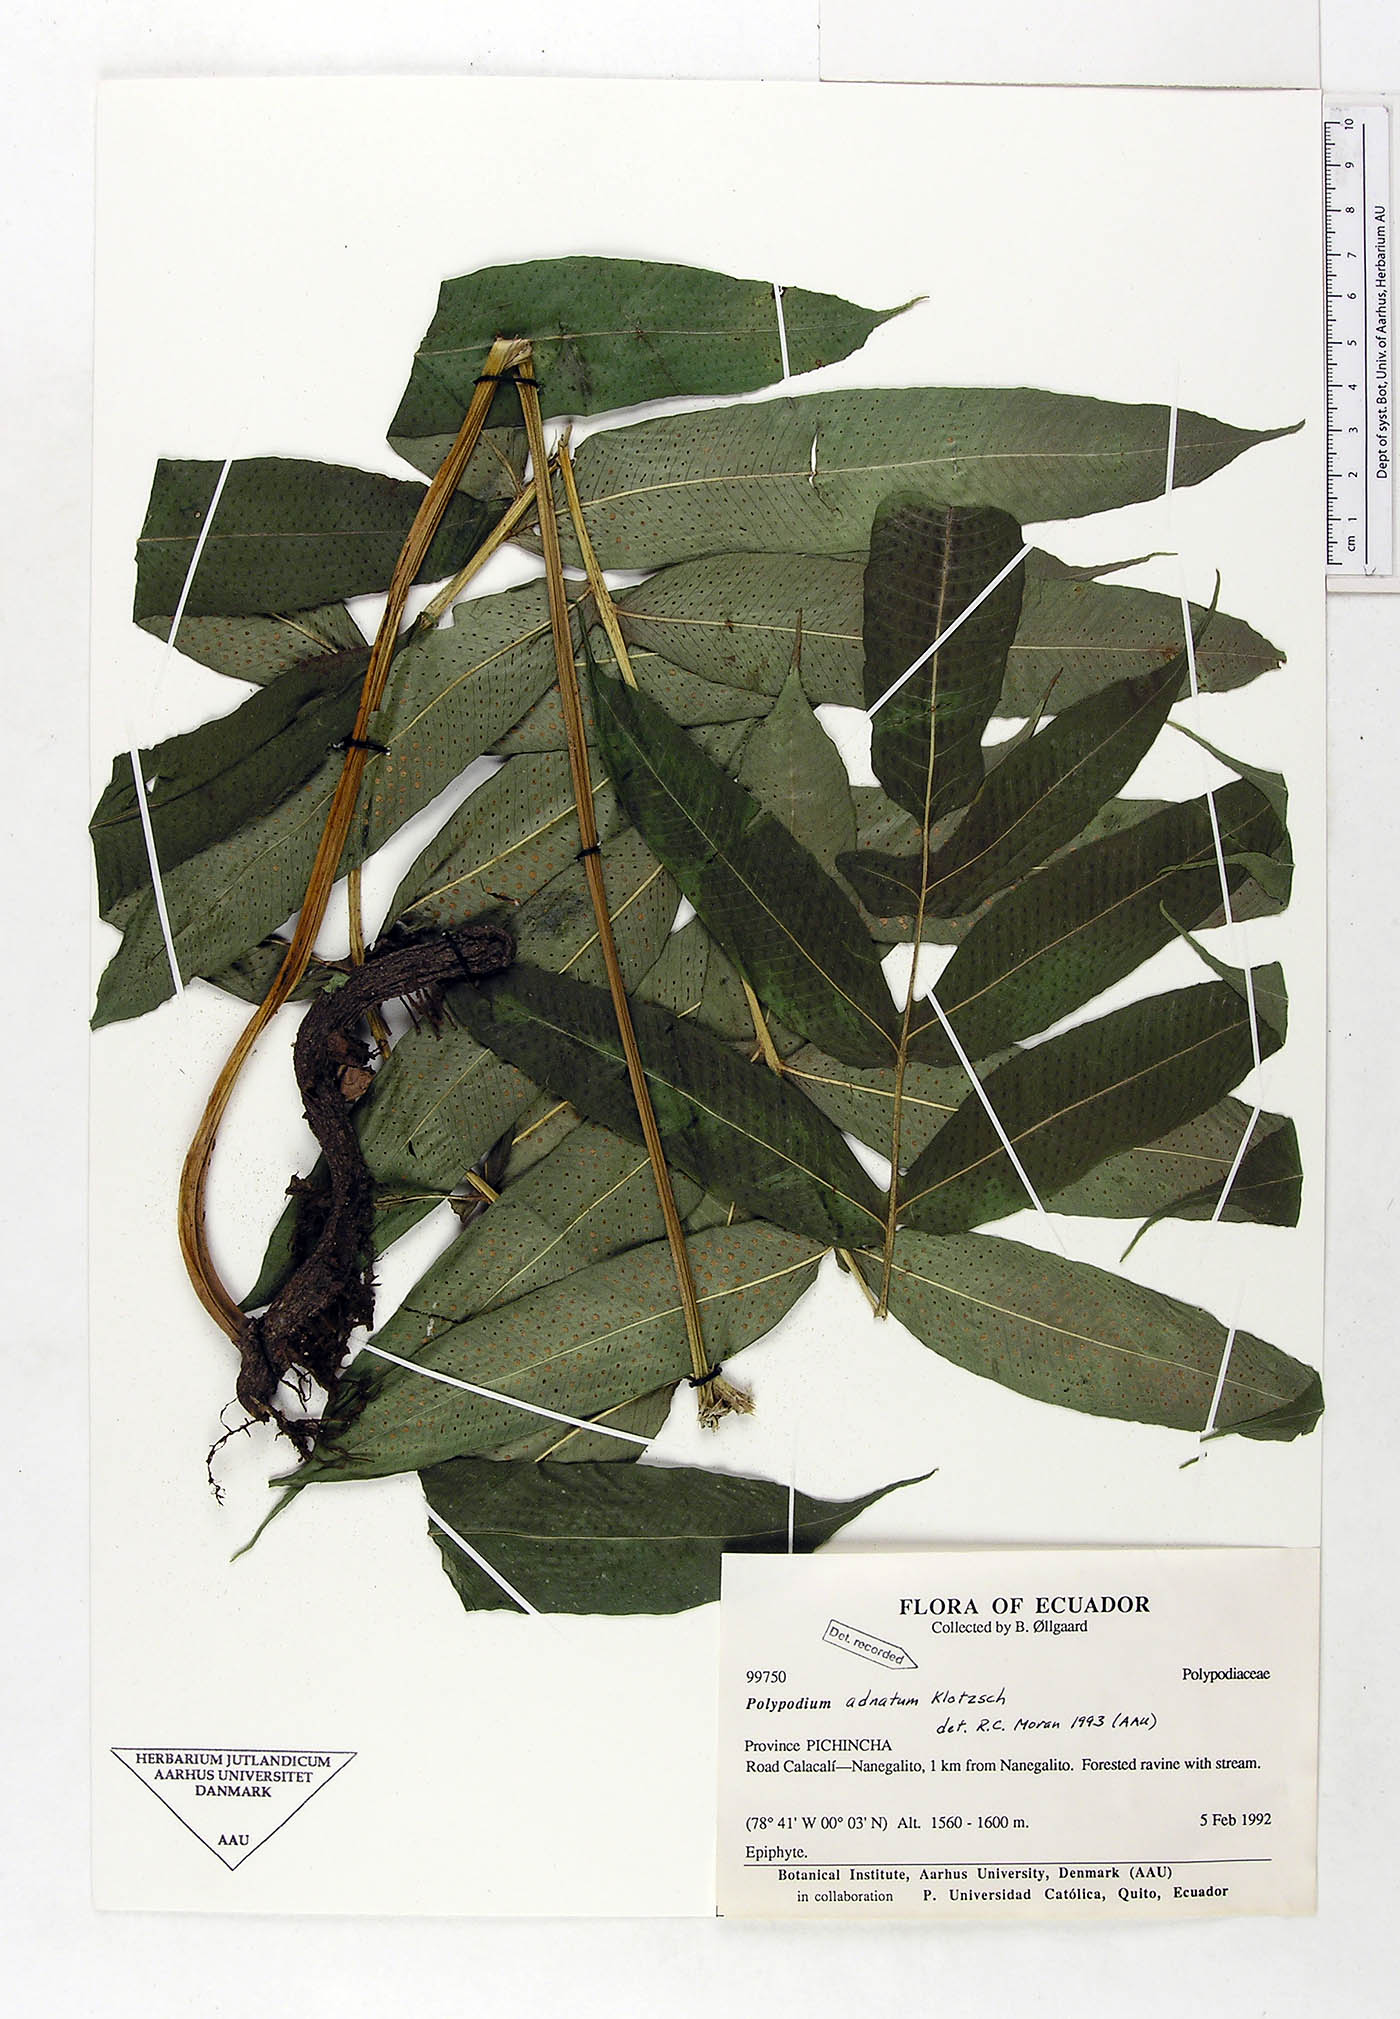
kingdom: Plantae
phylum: Tracheophyta
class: Polypodiopsida
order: Polypodiales
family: Polypodiaceae
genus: Serpocaulon
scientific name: Serpocaulon adnatum
